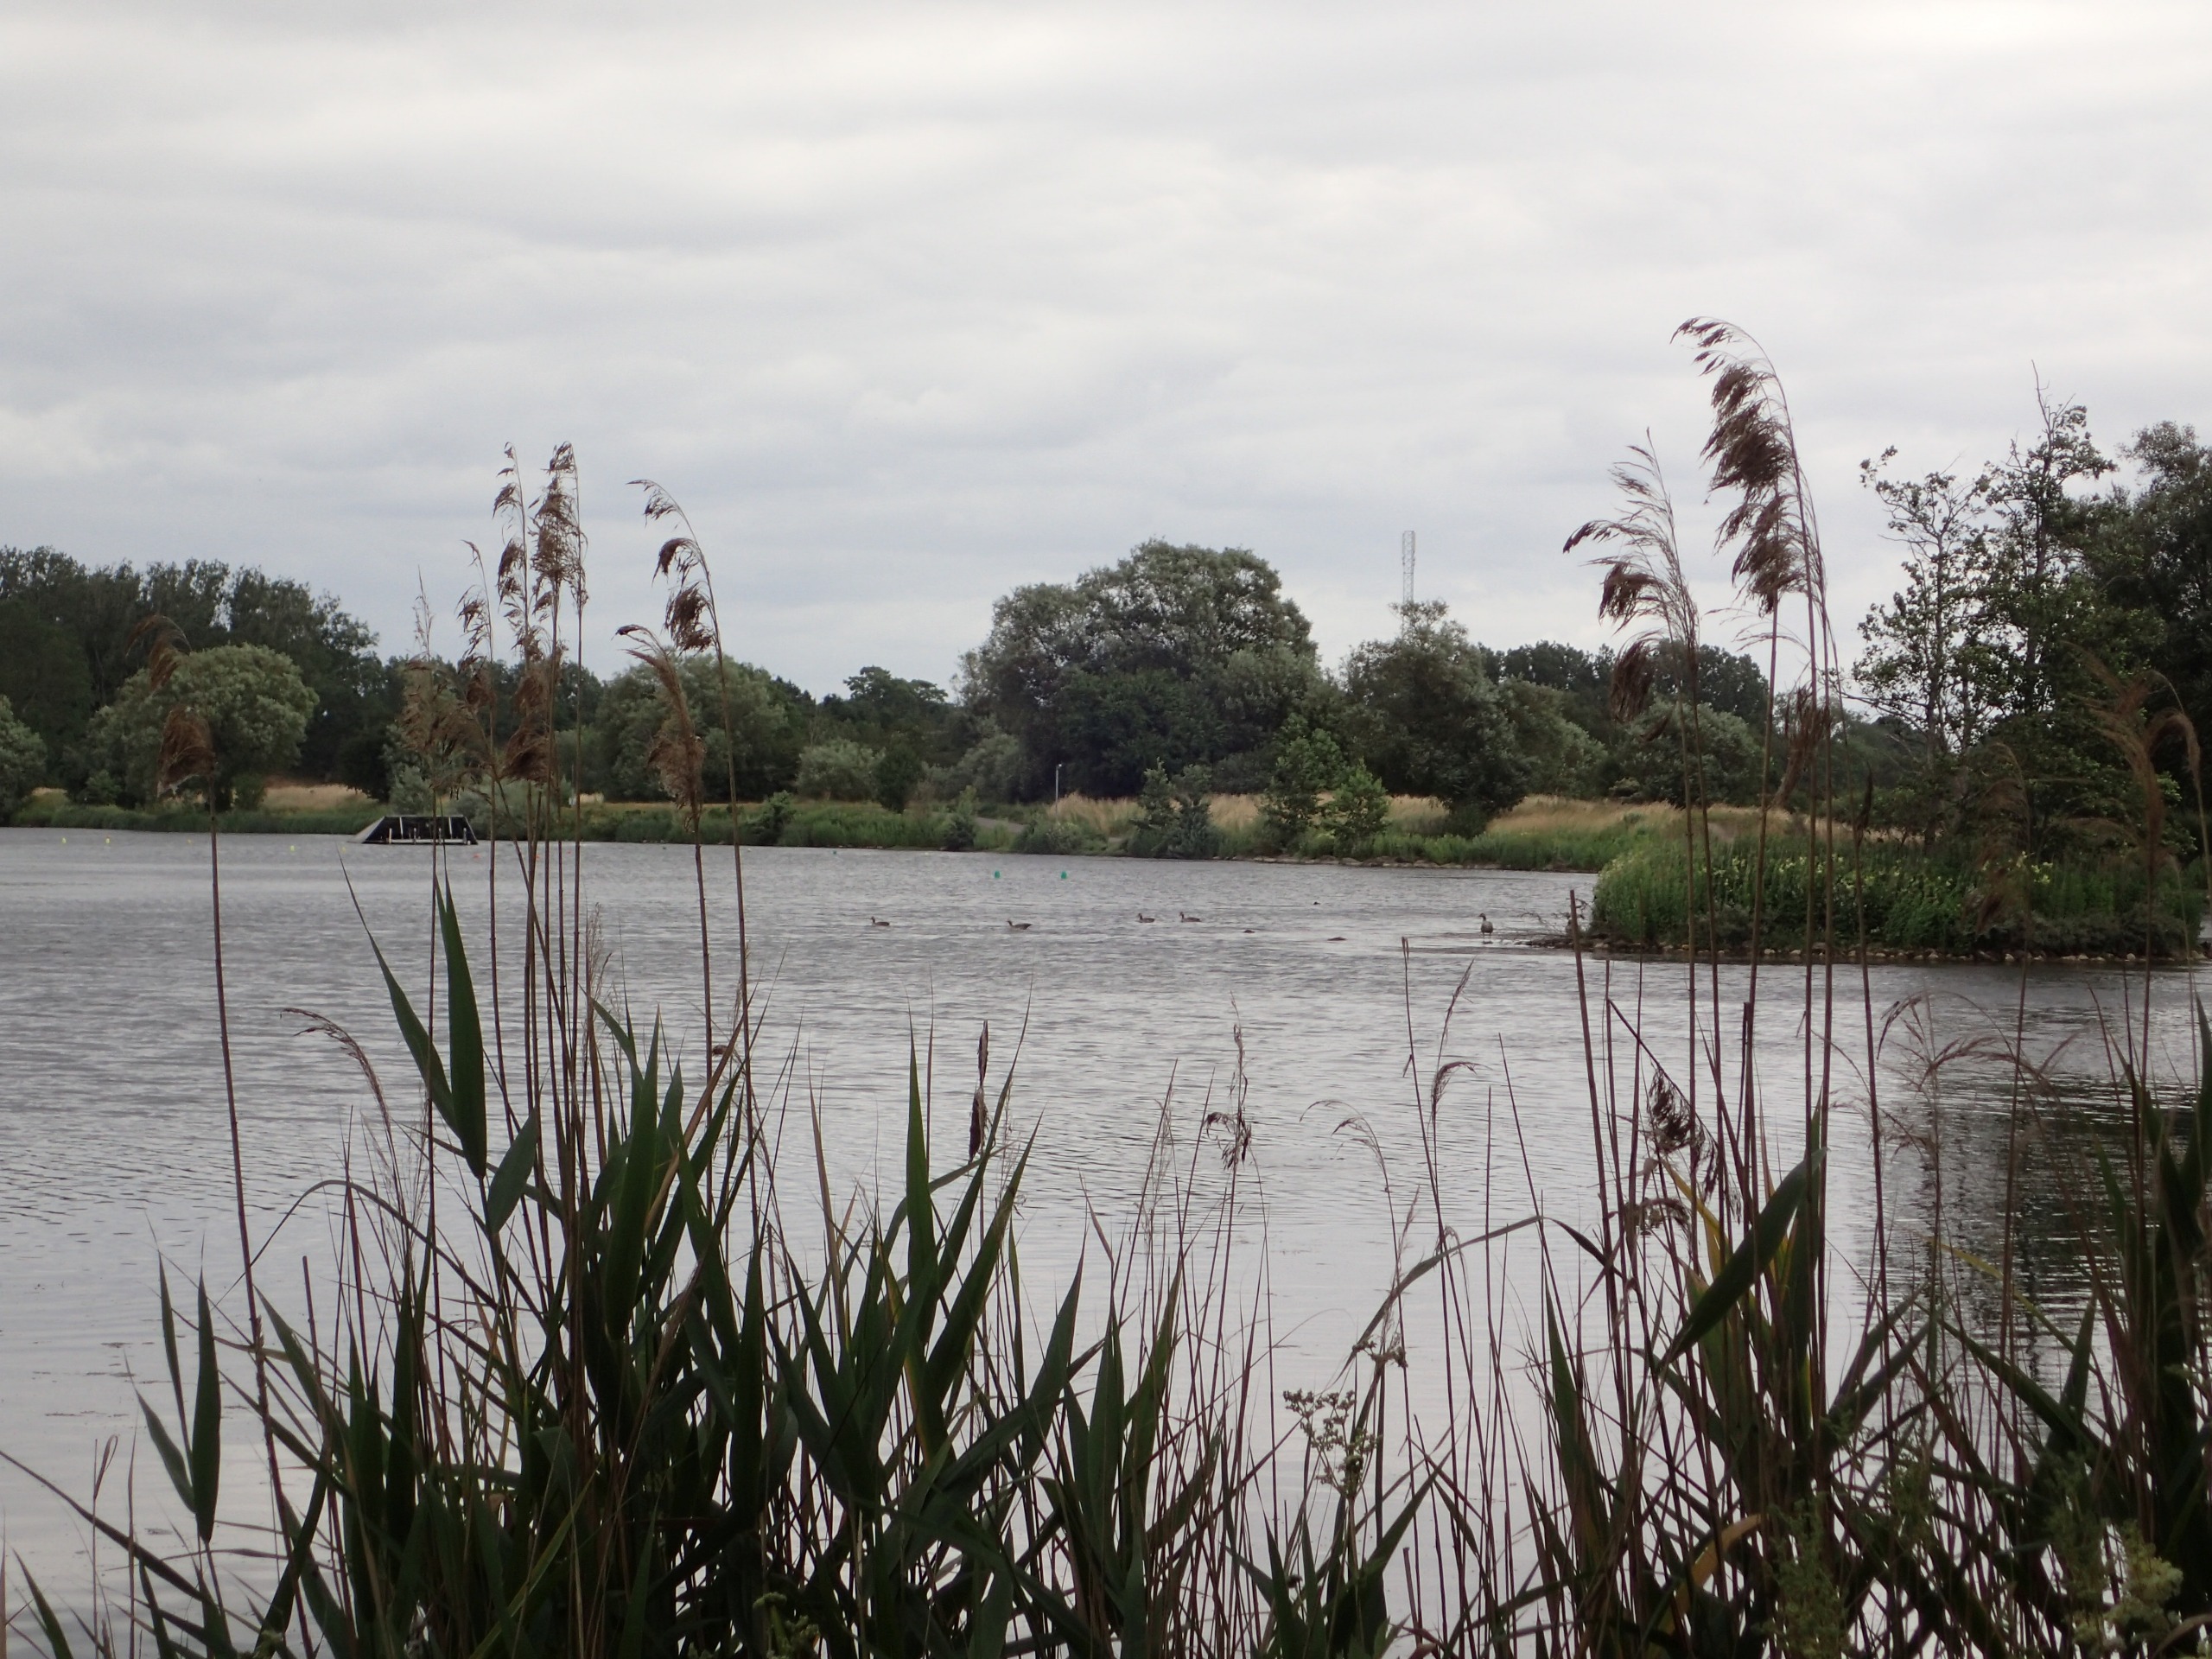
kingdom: Plantae
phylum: Tracheophyta
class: Liliopsida
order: Poales
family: Poaceae
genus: Phragmites
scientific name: Phragmites australis
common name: Tagrør
